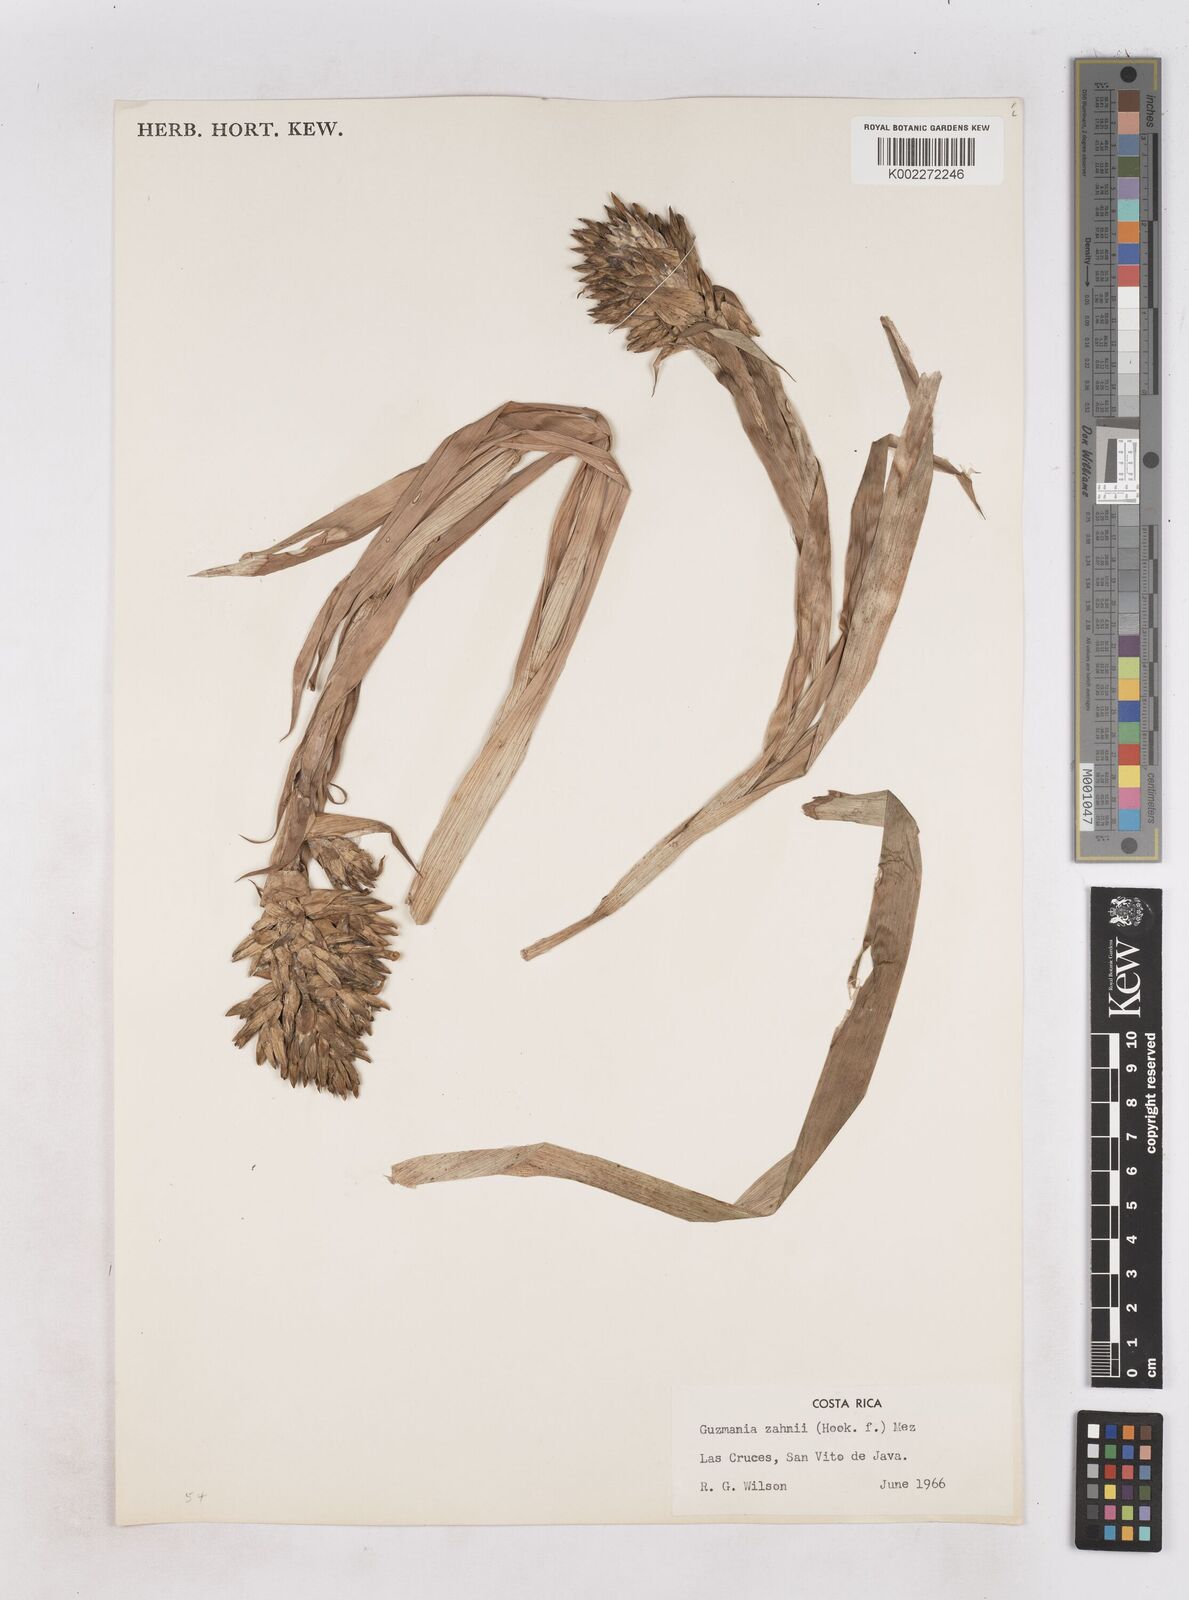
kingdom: Plantae
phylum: Tracheophyta
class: Liliopsida
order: Poales
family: Bromeliaceae
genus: Guzmania
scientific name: Guzmania zahnii
